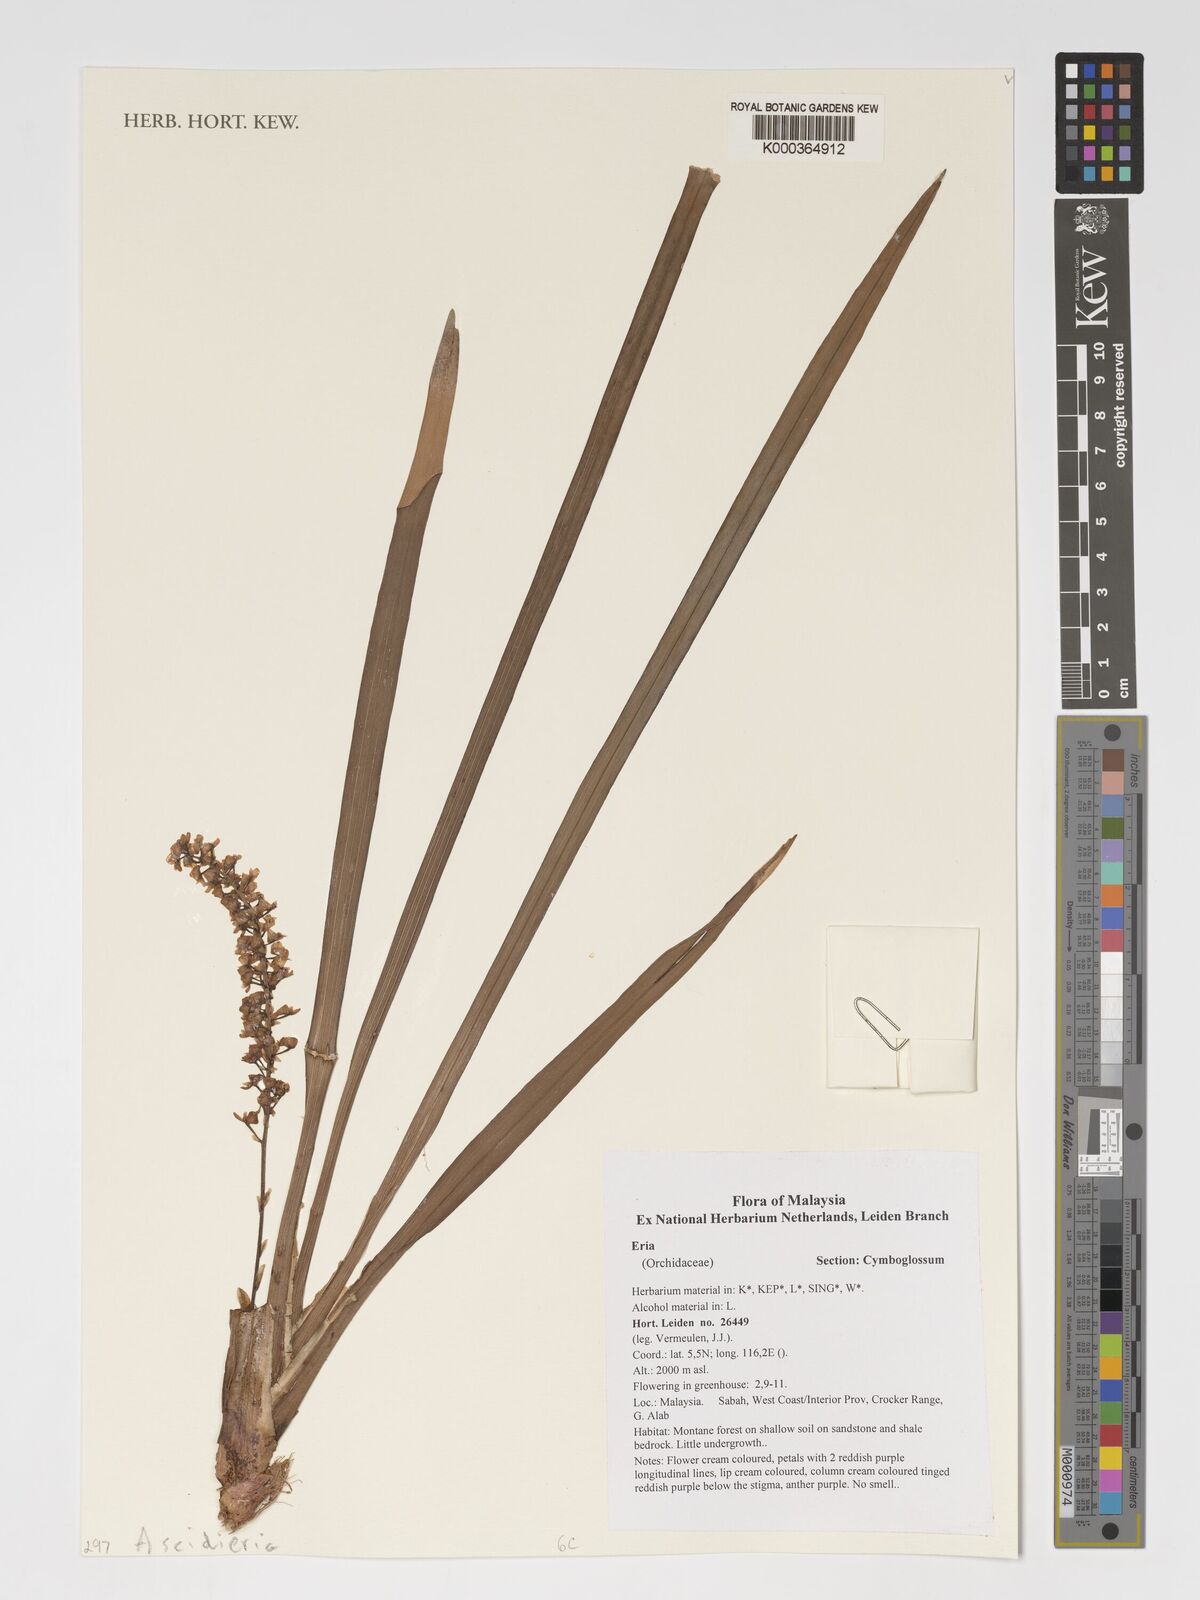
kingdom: Plantae
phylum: Tracheophyta
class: Liliopsida
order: Asparagales
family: Orchidaceae
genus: Eria
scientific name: Eria
